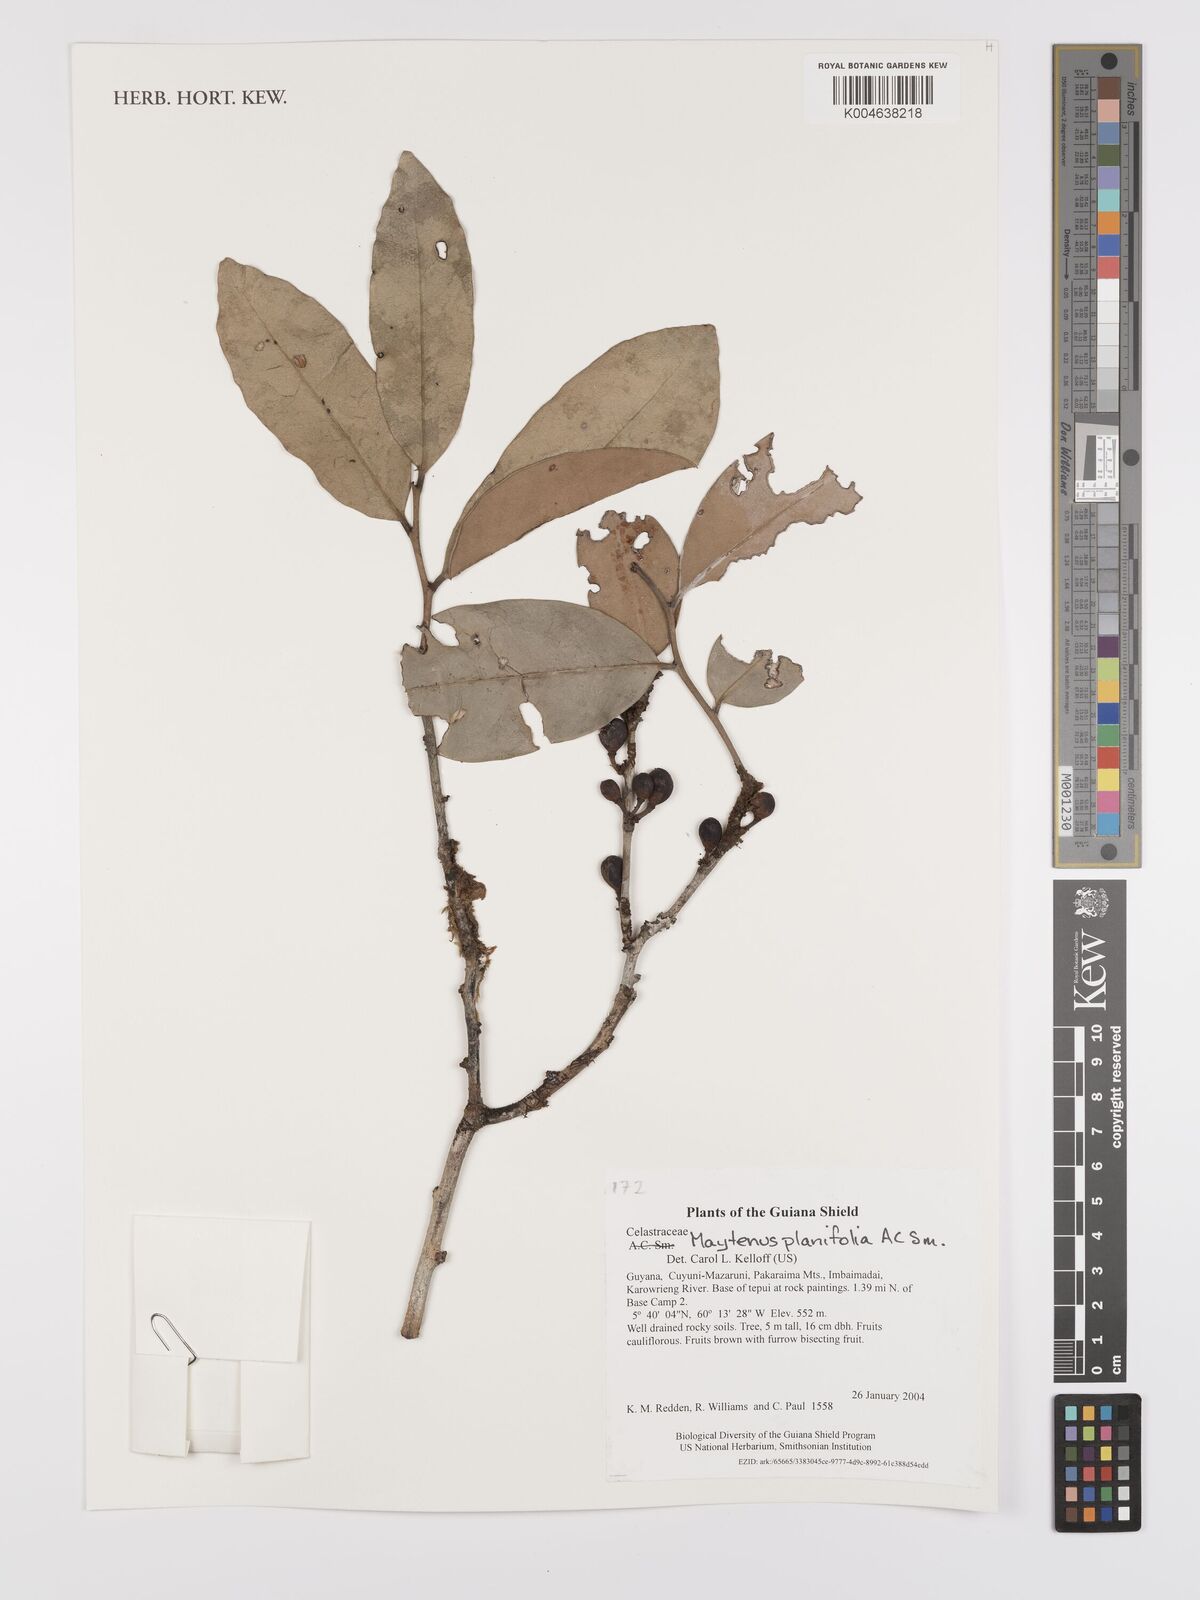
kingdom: Plantae
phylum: Tracheophyta
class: Magnoliopsida
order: Celastrales
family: Celastraceae
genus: Monteverdia
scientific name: Monteverdia planifolia
